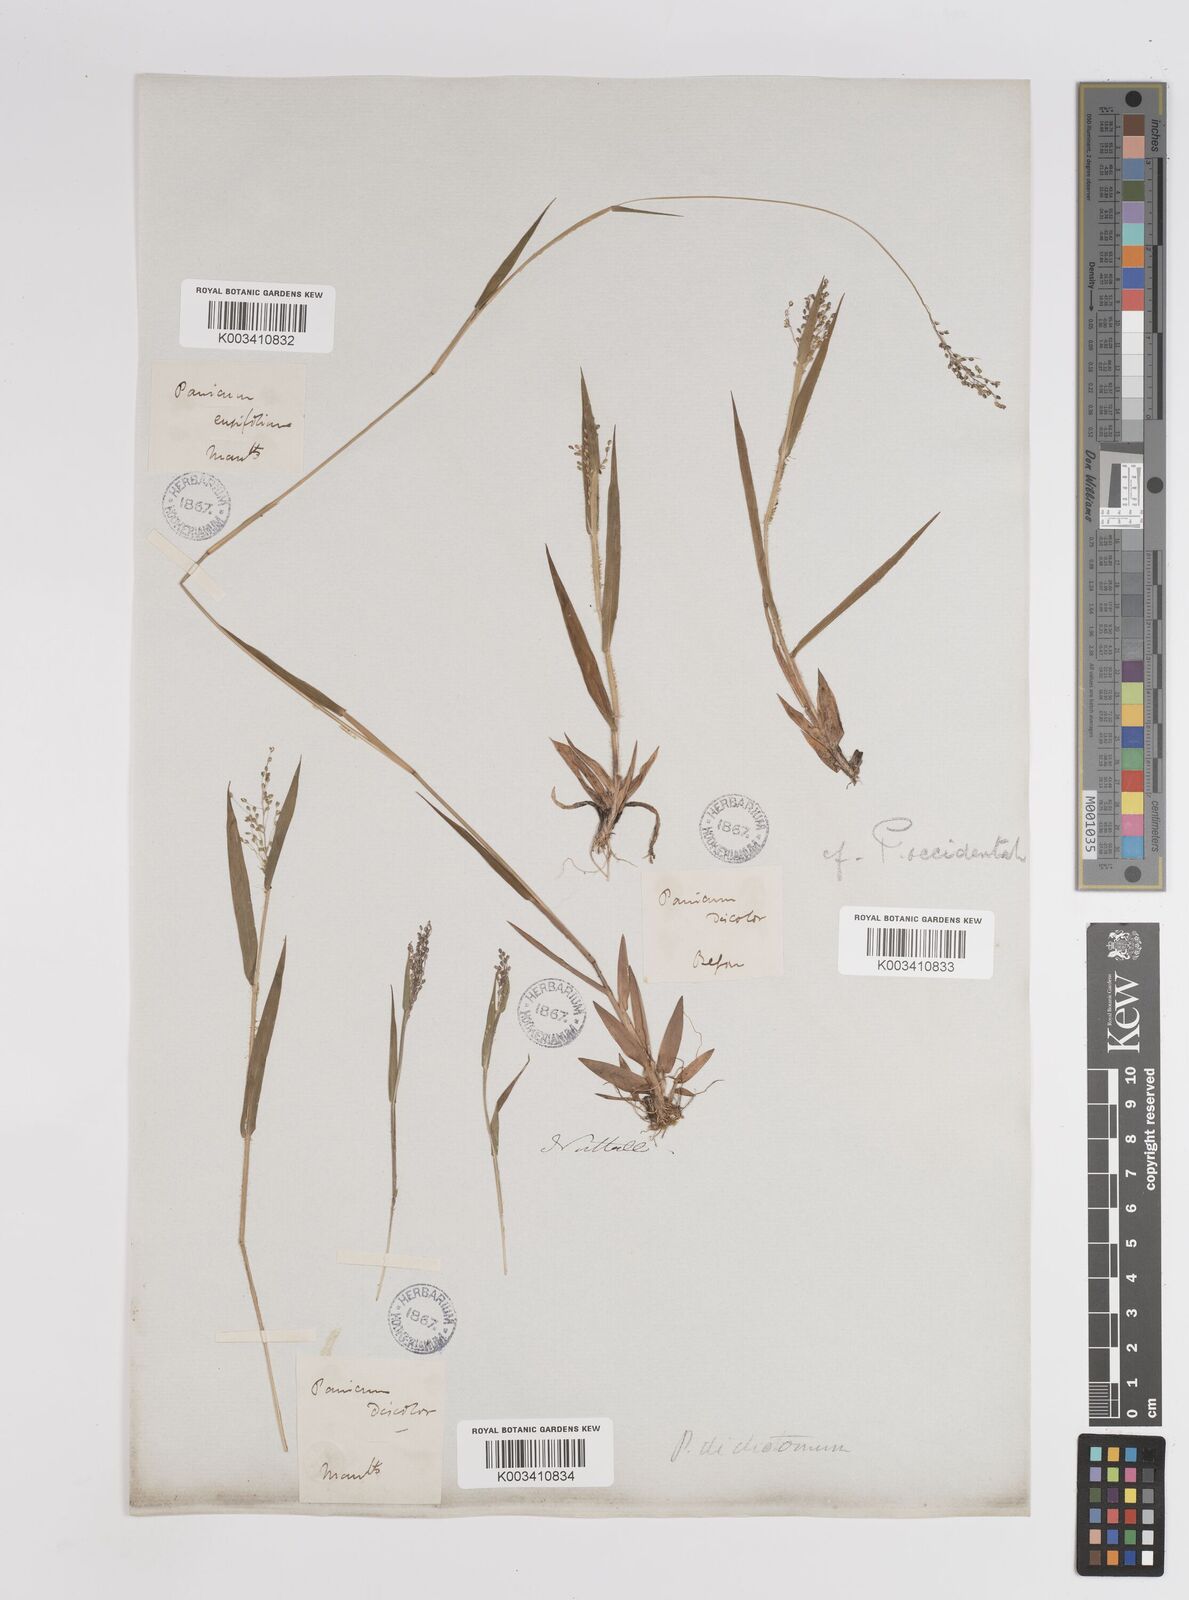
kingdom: Plantae
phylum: Tracheophyta
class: Liliopsida
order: Poales
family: Poaceae
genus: Dichanthelium
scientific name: Dichanthelium implicatum
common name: Slender-stemmed panicgrass
